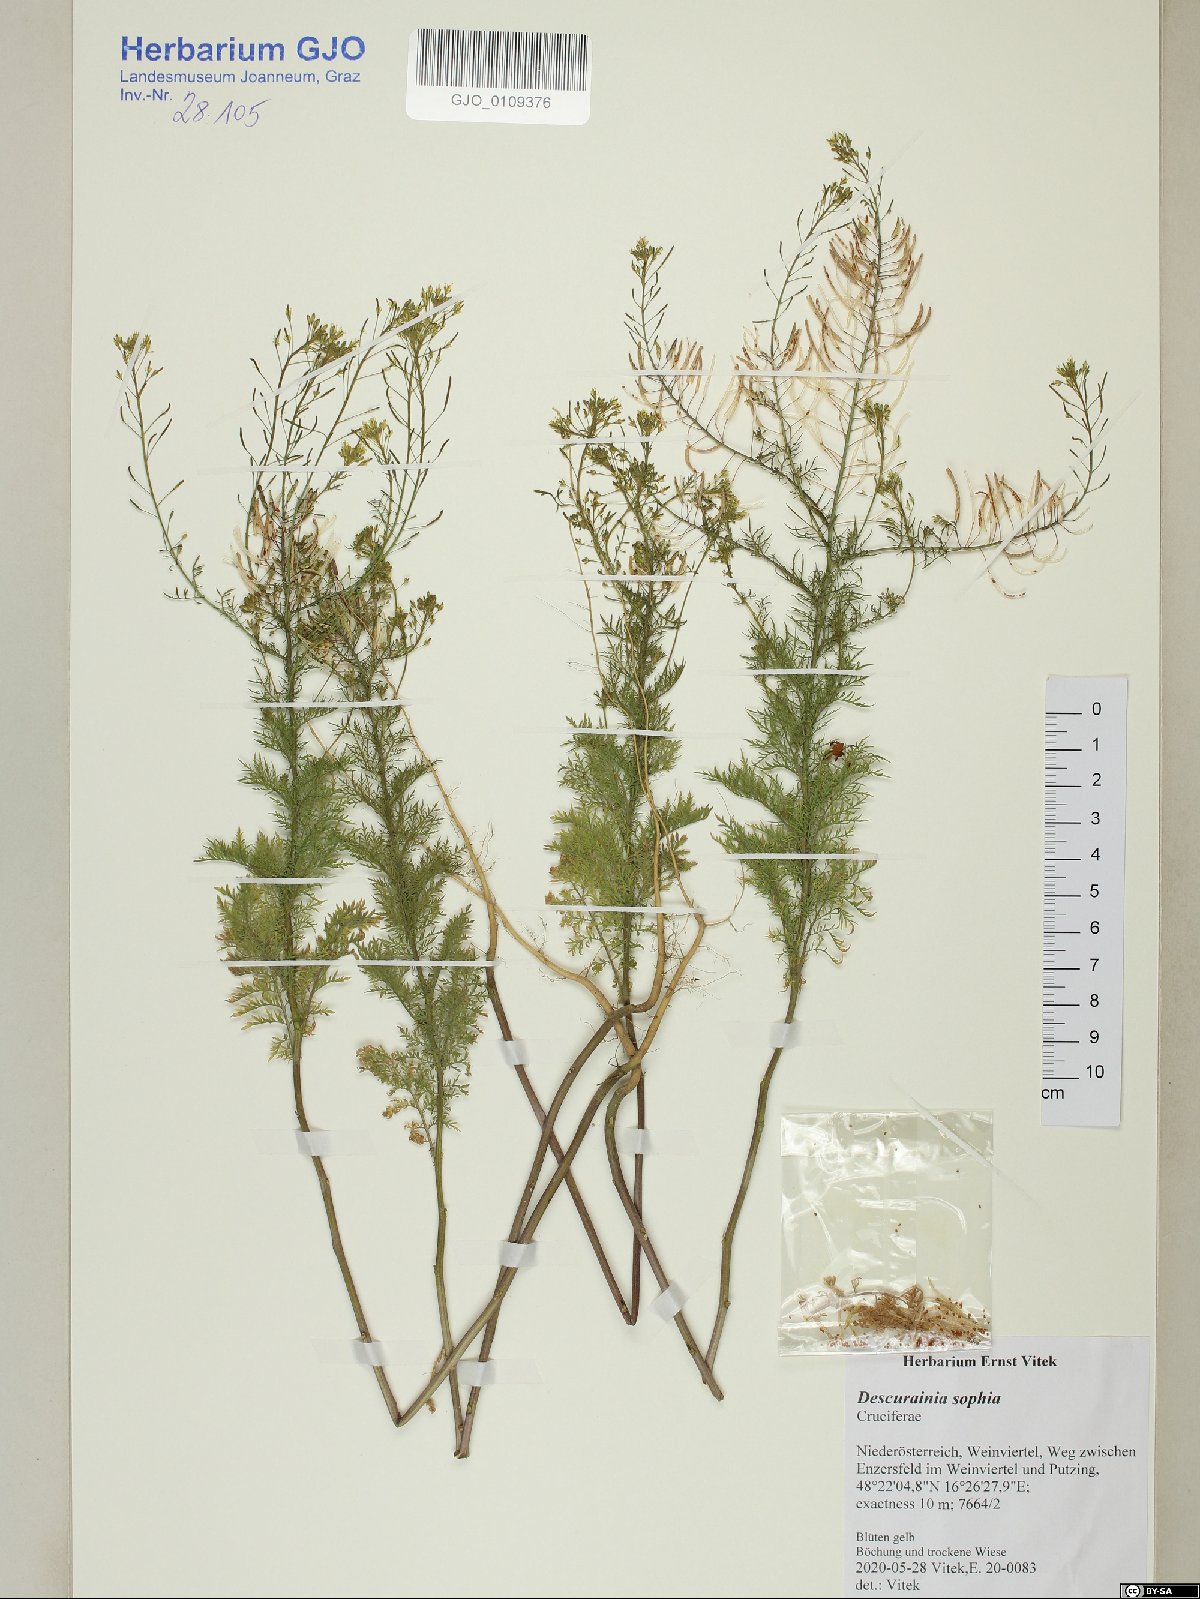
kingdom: Plantae
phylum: Tracheophyta
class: Magnoliopsida
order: Brassicales
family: Brassicaceae
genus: Descurainia
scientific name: Descurainia sophia
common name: Flixweed
